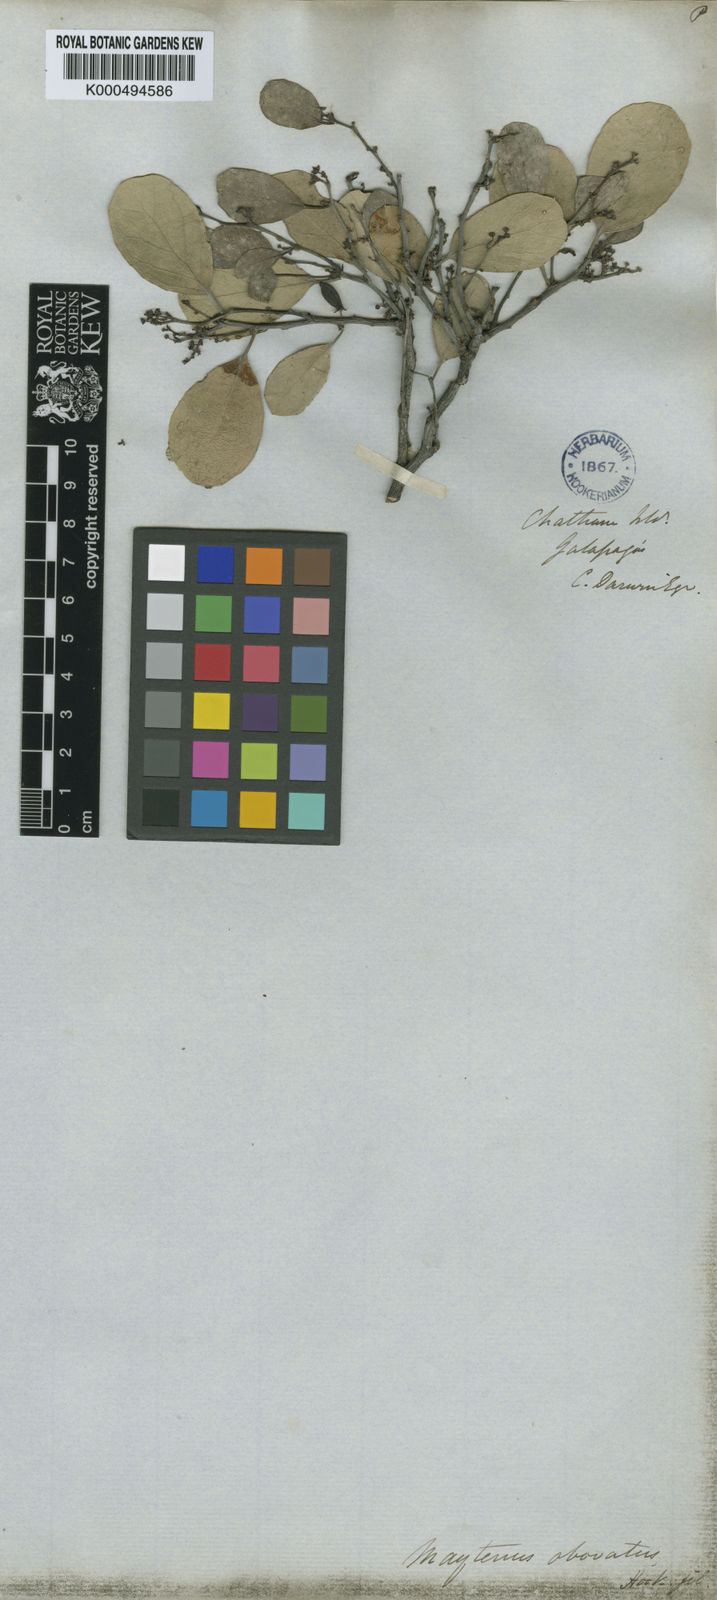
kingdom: Plantae
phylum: Tracheophyta
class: Magnoliopsida
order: Celastrales
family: Celastraceae
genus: Tricerma
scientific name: Tricerma octogonum
